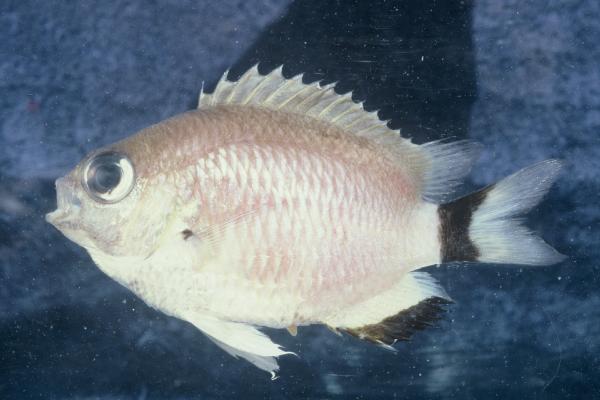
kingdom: Animalia
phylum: Chordata
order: Perciformes
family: Pomacentridae
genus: Chromis
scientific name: Chromis woodsi
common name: Spiny chromis
